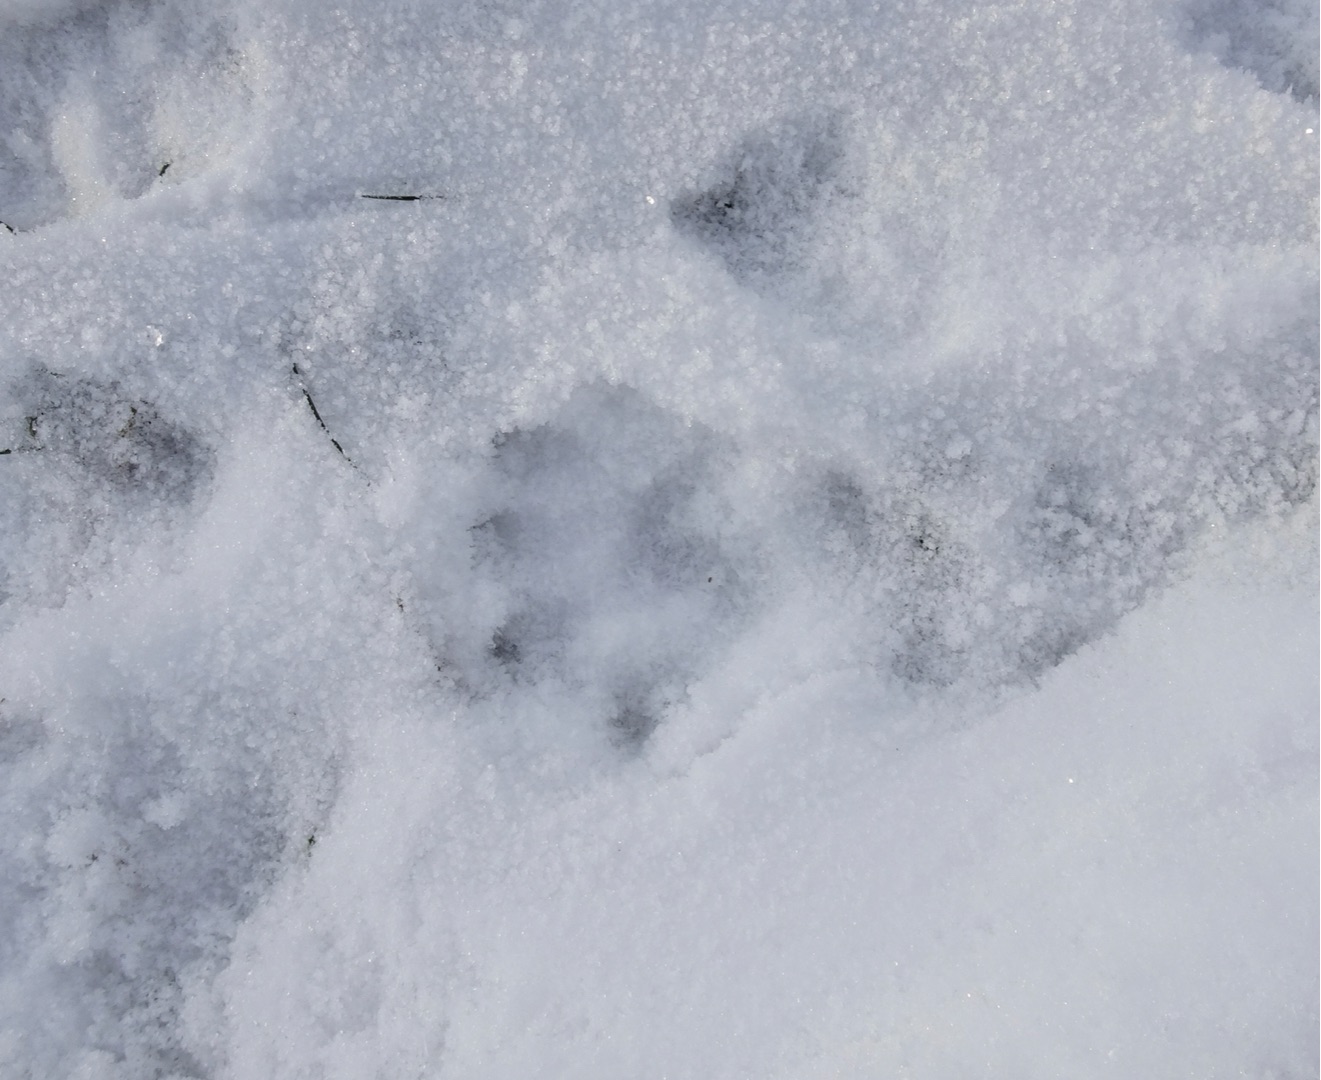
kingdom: Animalia
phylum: Chordata
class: Mammalia
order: Carnivora
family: Mustelidae
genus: Lutra
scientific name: Lutra lutra
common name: Odder
